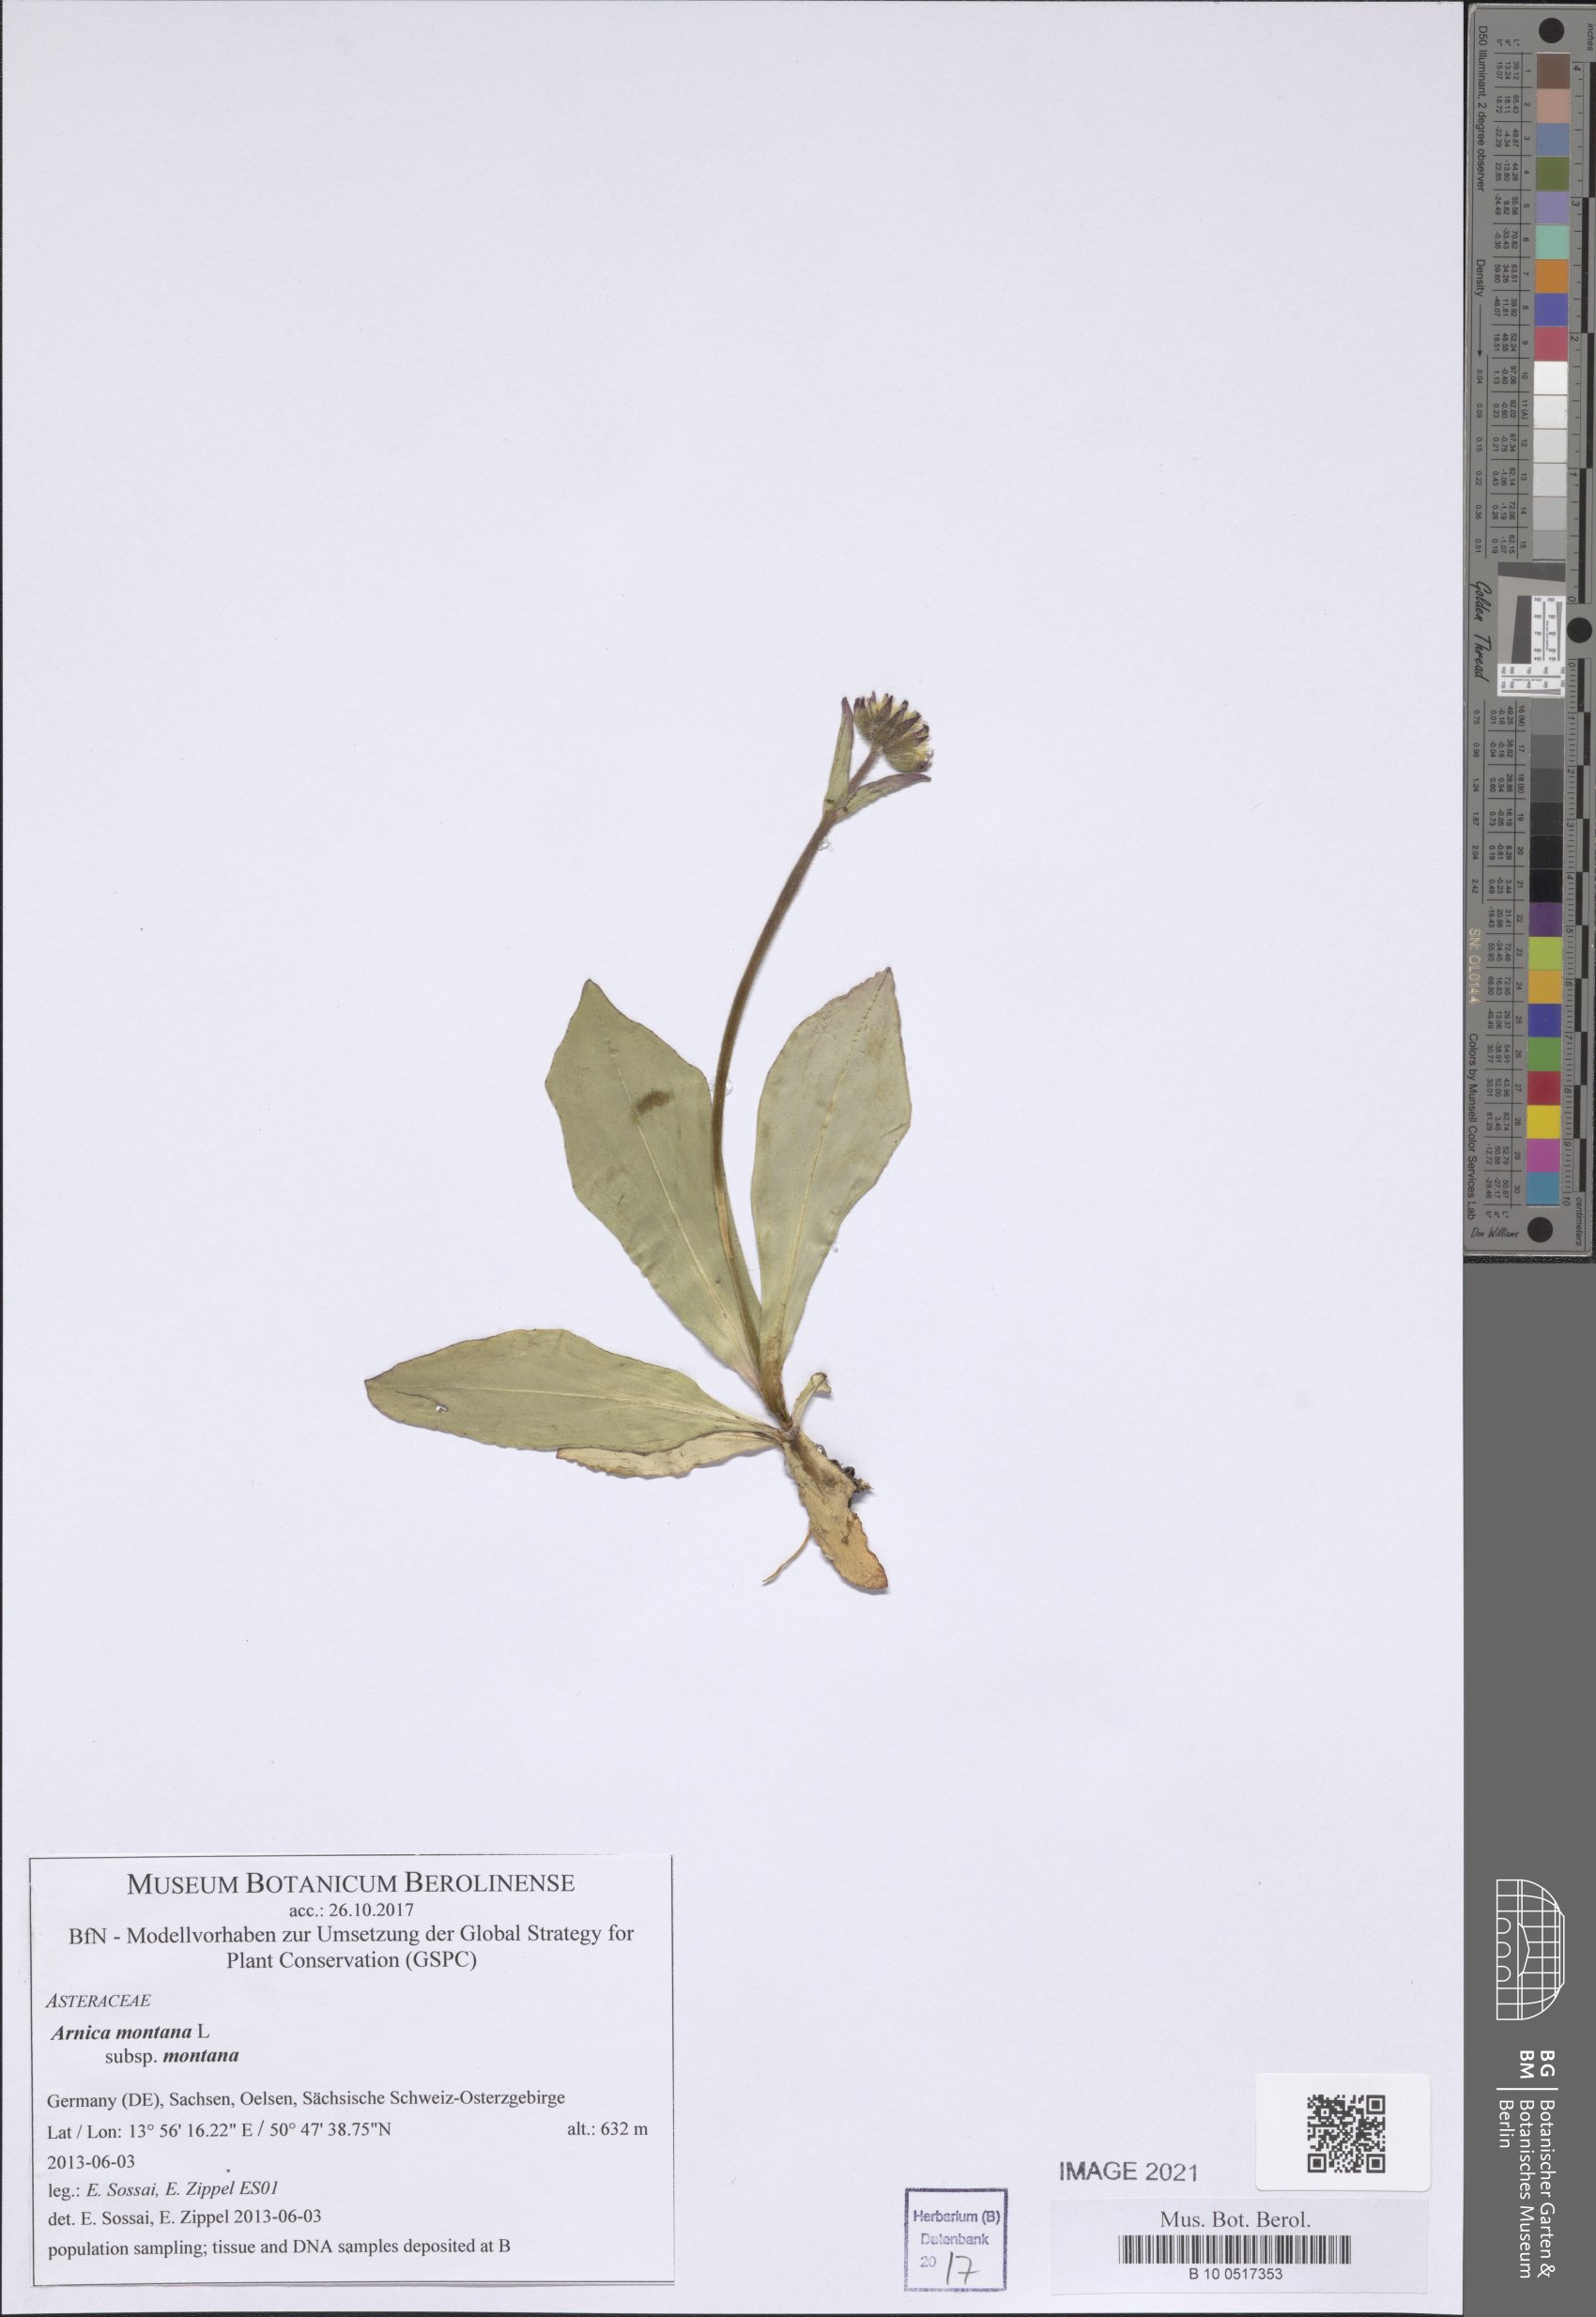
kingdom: Plantae
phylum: Tracheophyta
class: Magnoliopsida
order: Asterales
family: Asteraceae
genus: Arnica
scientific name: Arnica montana
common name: Leopard's bane
